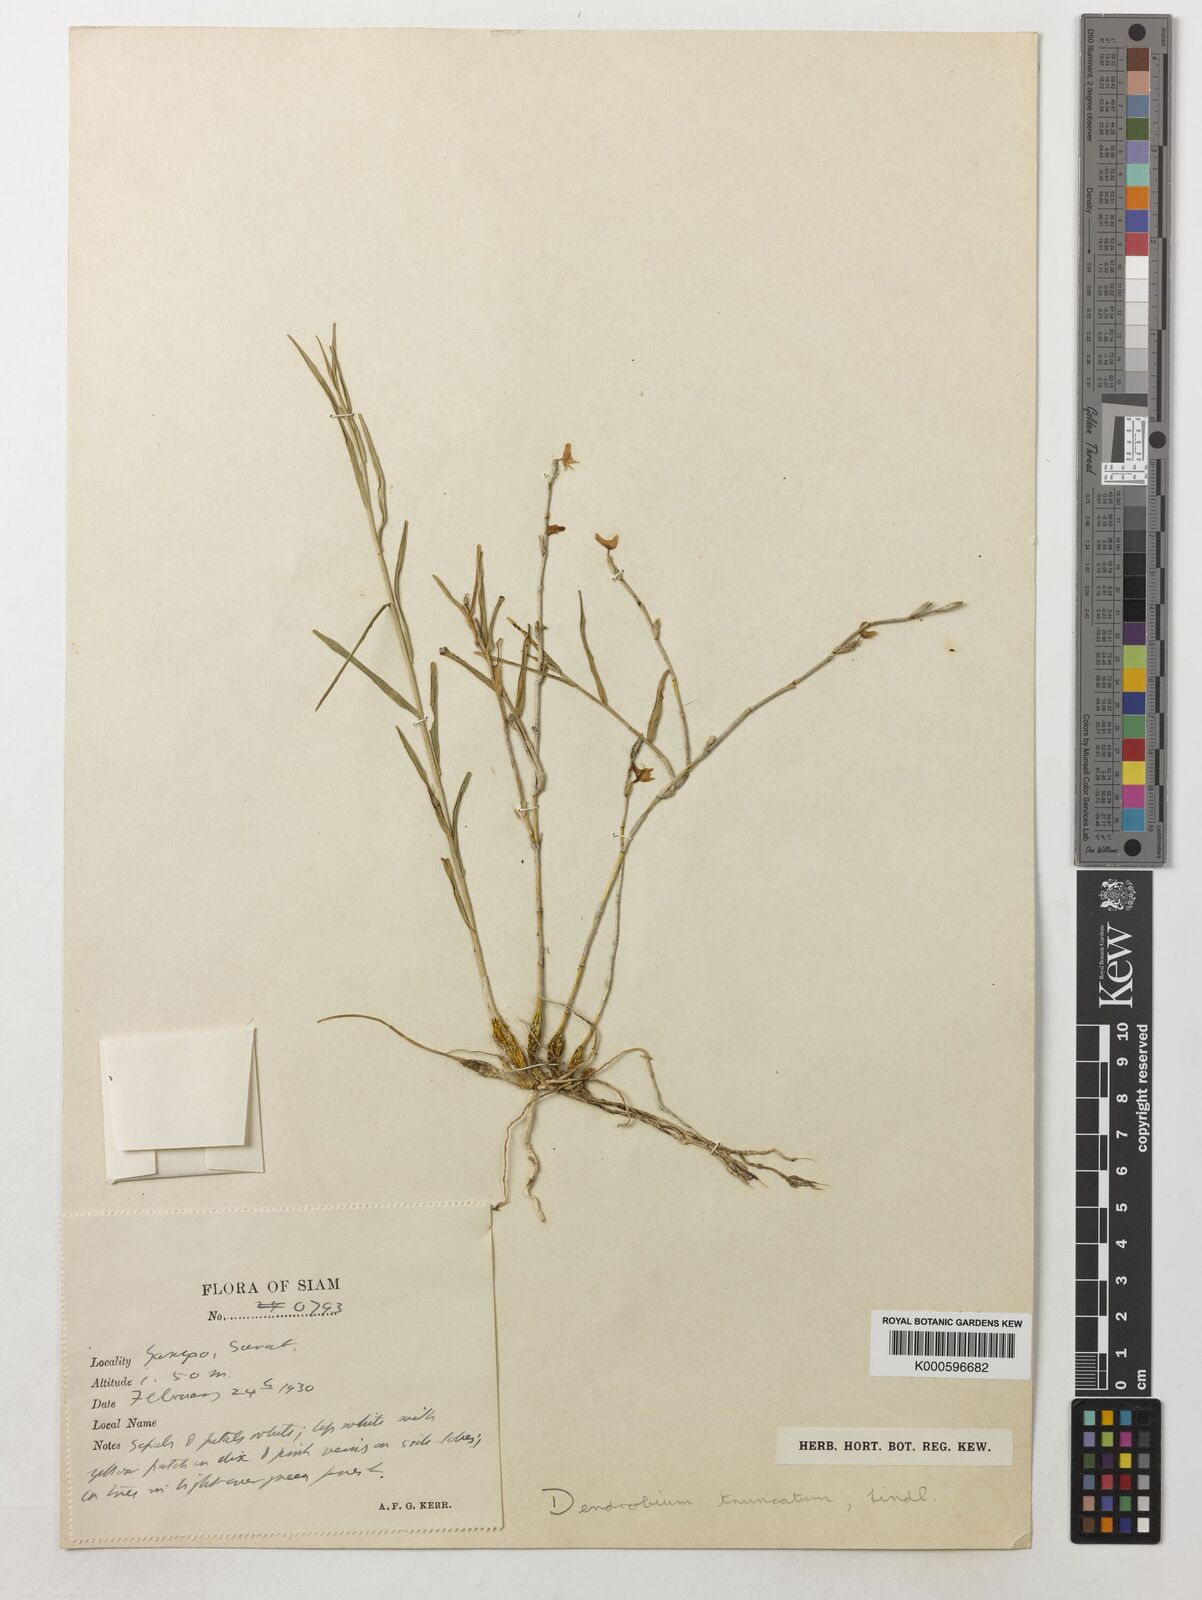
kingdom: Plantae
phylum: Tracheophyta
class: Liliopsida
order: Asparagales
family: Orchidaceae
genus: Dendrobium
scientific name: Dendrobium truncatum
